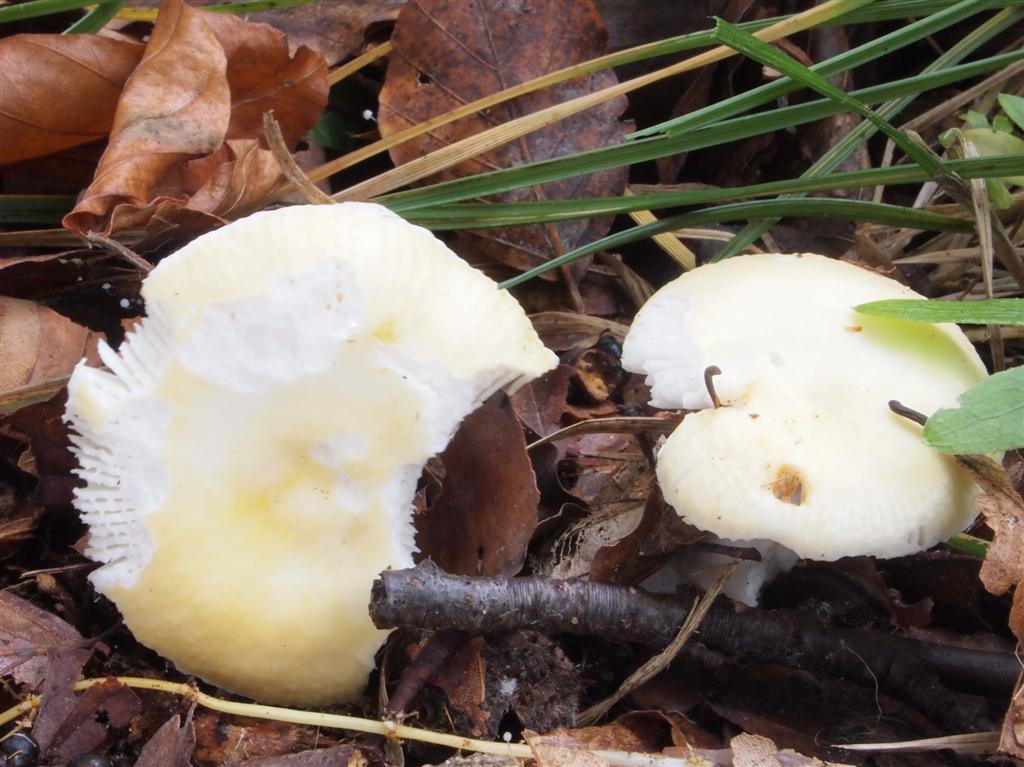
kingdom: Fungi
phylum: Basidiomycota
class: Agaricomycetes
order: Russulales
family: Russulaceae
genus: Russula
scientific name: Russula solaris
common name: sol-skørhat
